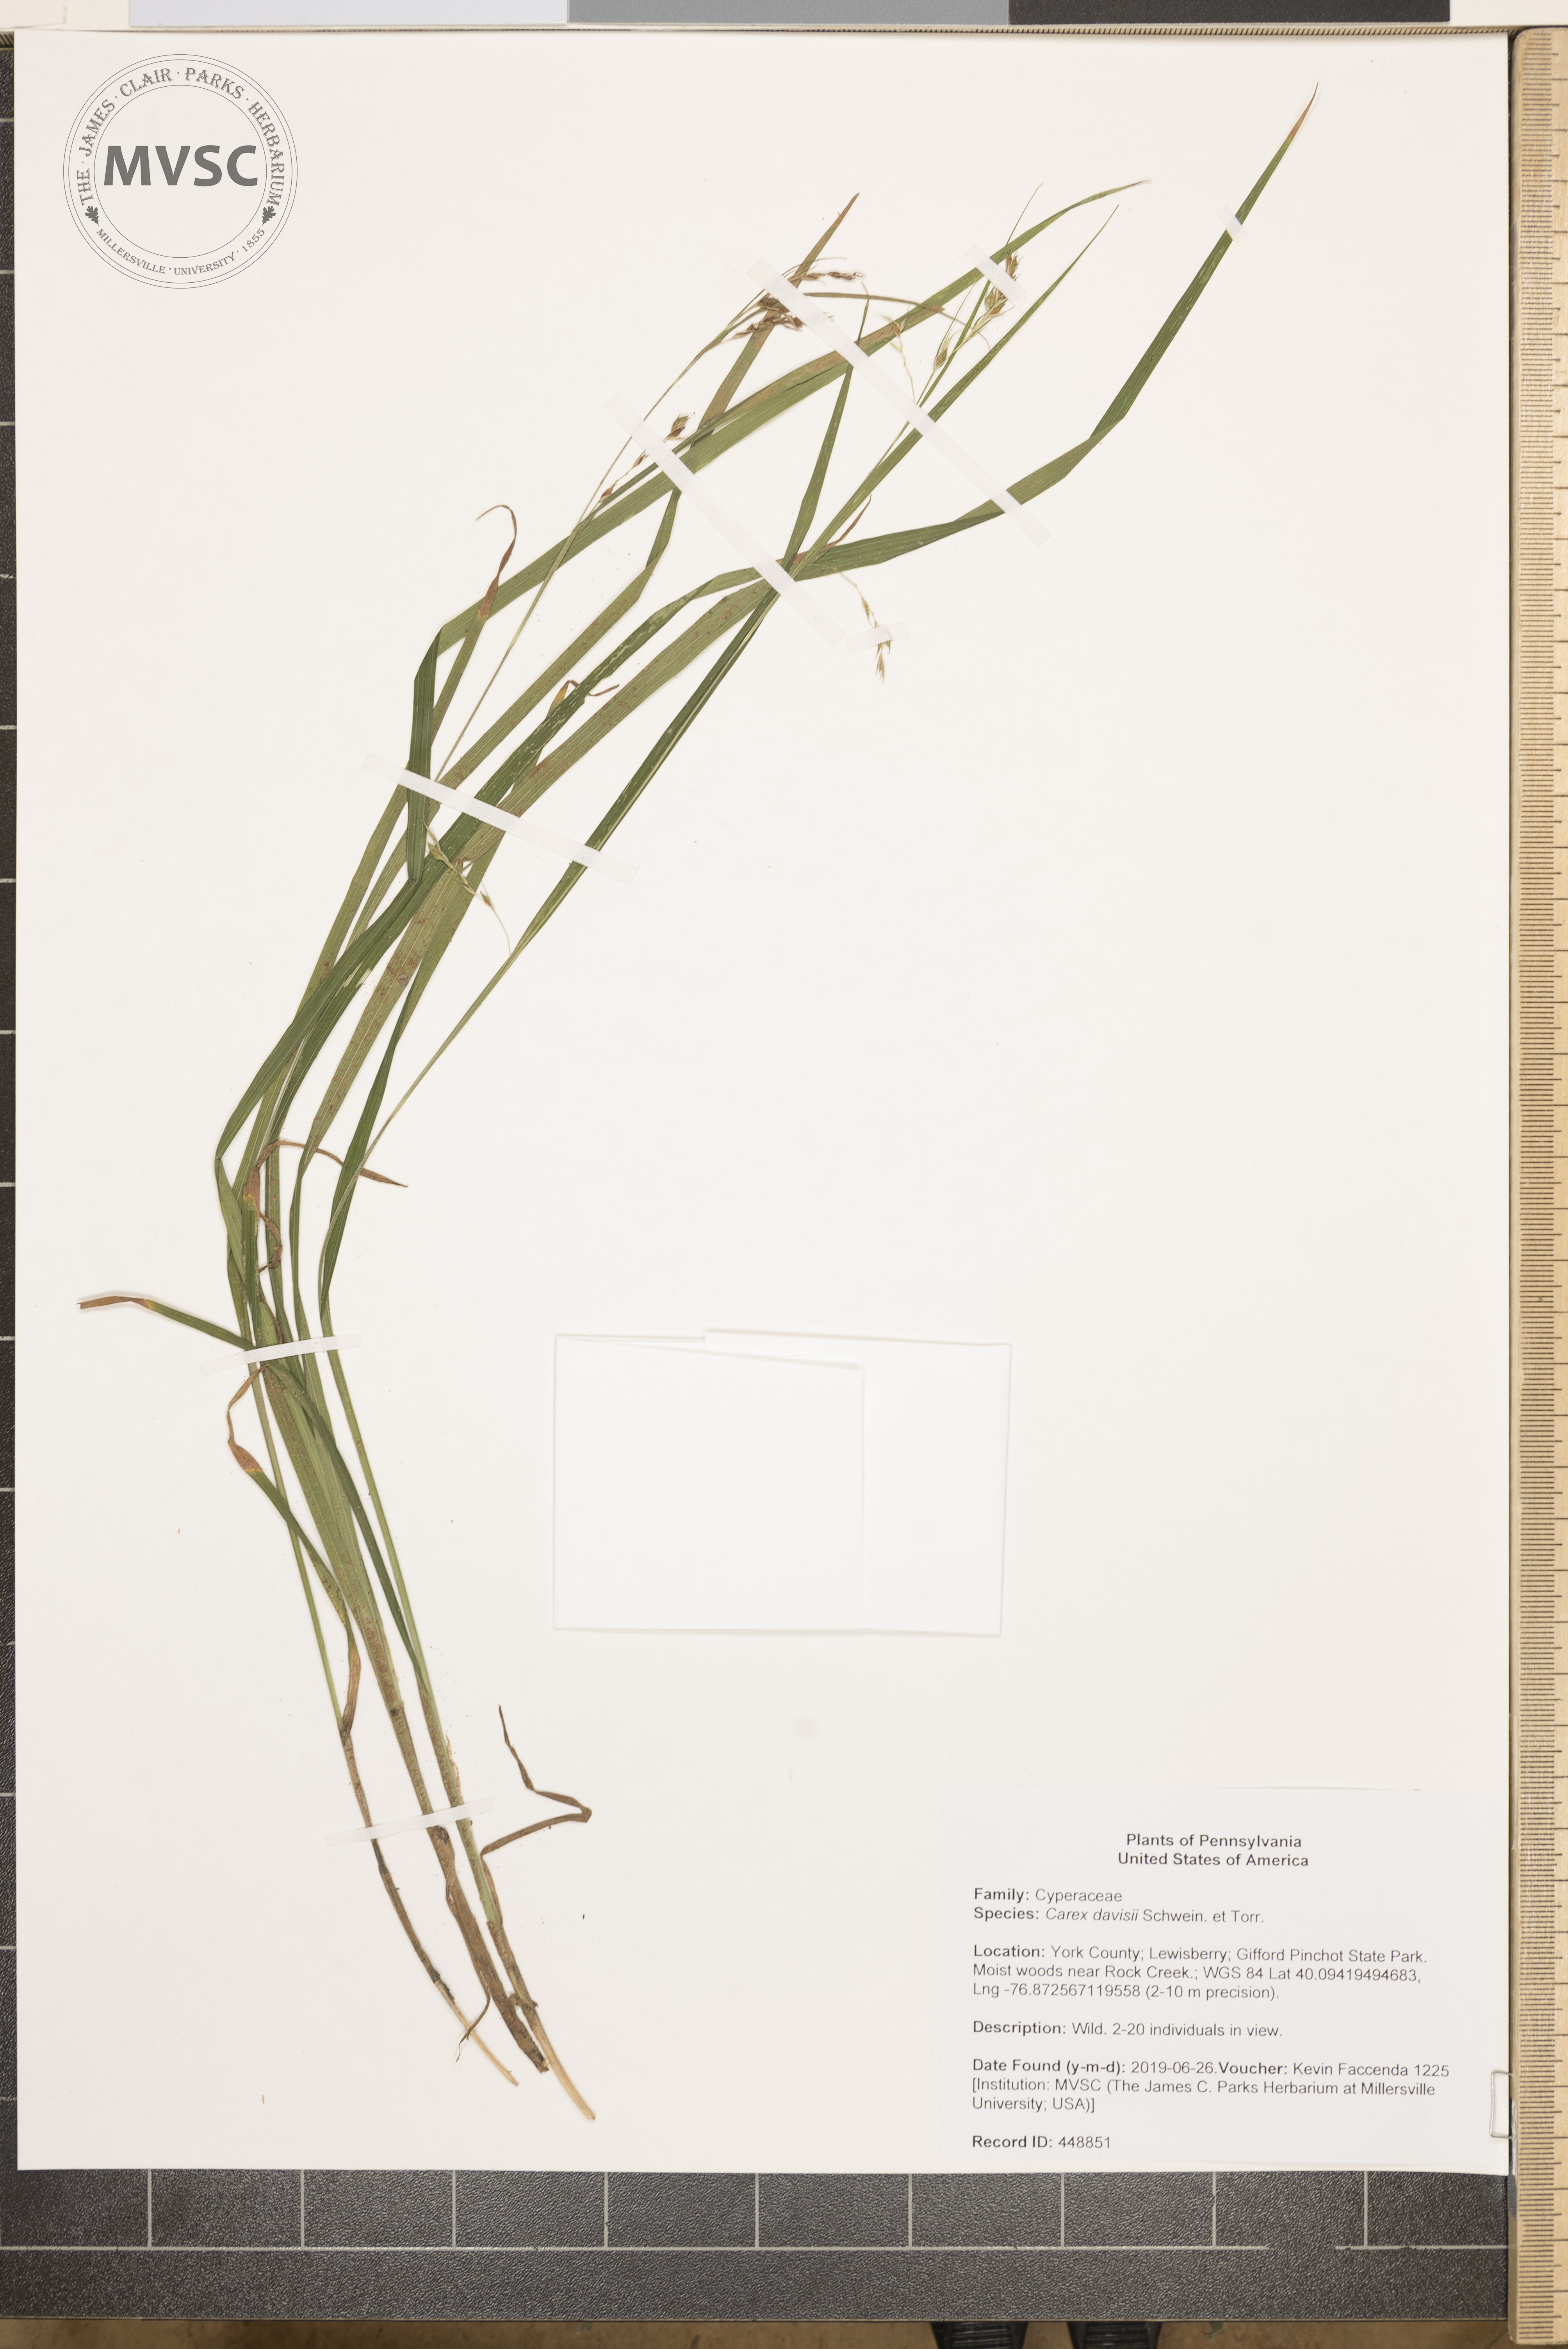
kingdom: Plantae
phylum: Tracheophyta
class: Liliopsida
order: Poales
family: Cyperaceae
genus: Carex
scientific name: Carex davisii
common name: Davis' sedge
